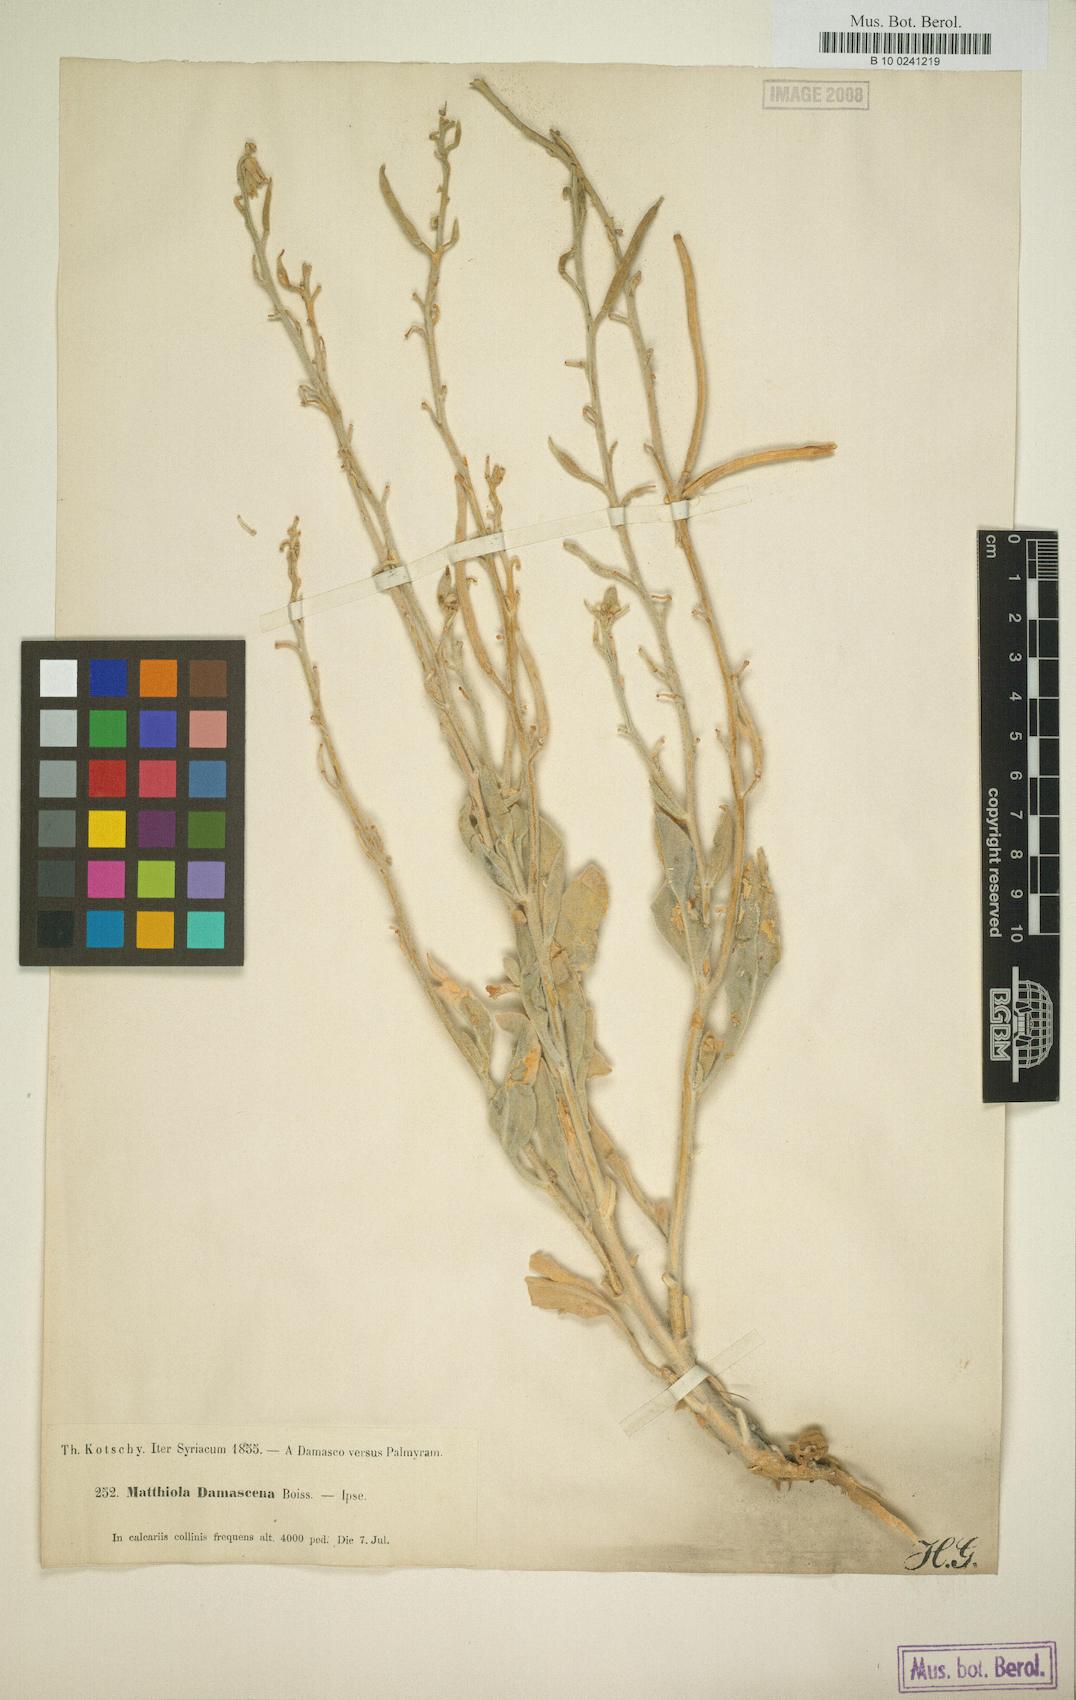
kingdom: Plantae
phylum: Tracheophyta
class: Magnoliopsida
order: Brassicales
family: Brassicaceae
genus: Matthiola
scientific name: Matthiola damascena
